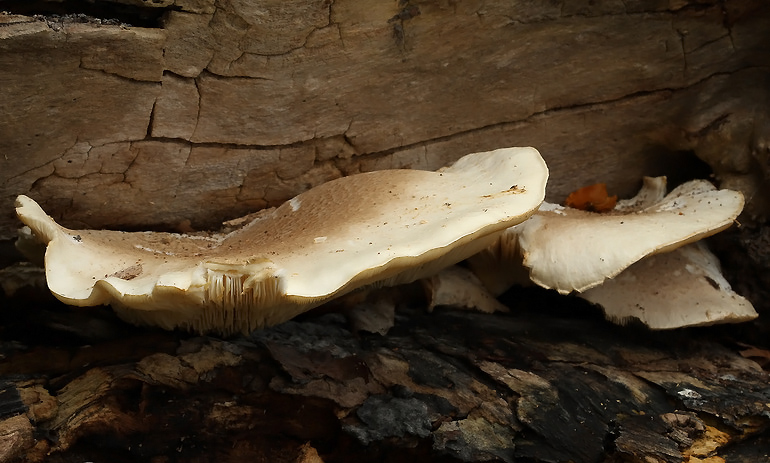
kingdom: Fungi
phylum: Basidiomycota
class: Agaricomycetes
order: Agaricales
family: Pleurotaceae
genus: Pleurotus
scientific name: Pleurotus dryinus
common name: korkagtig østershat
